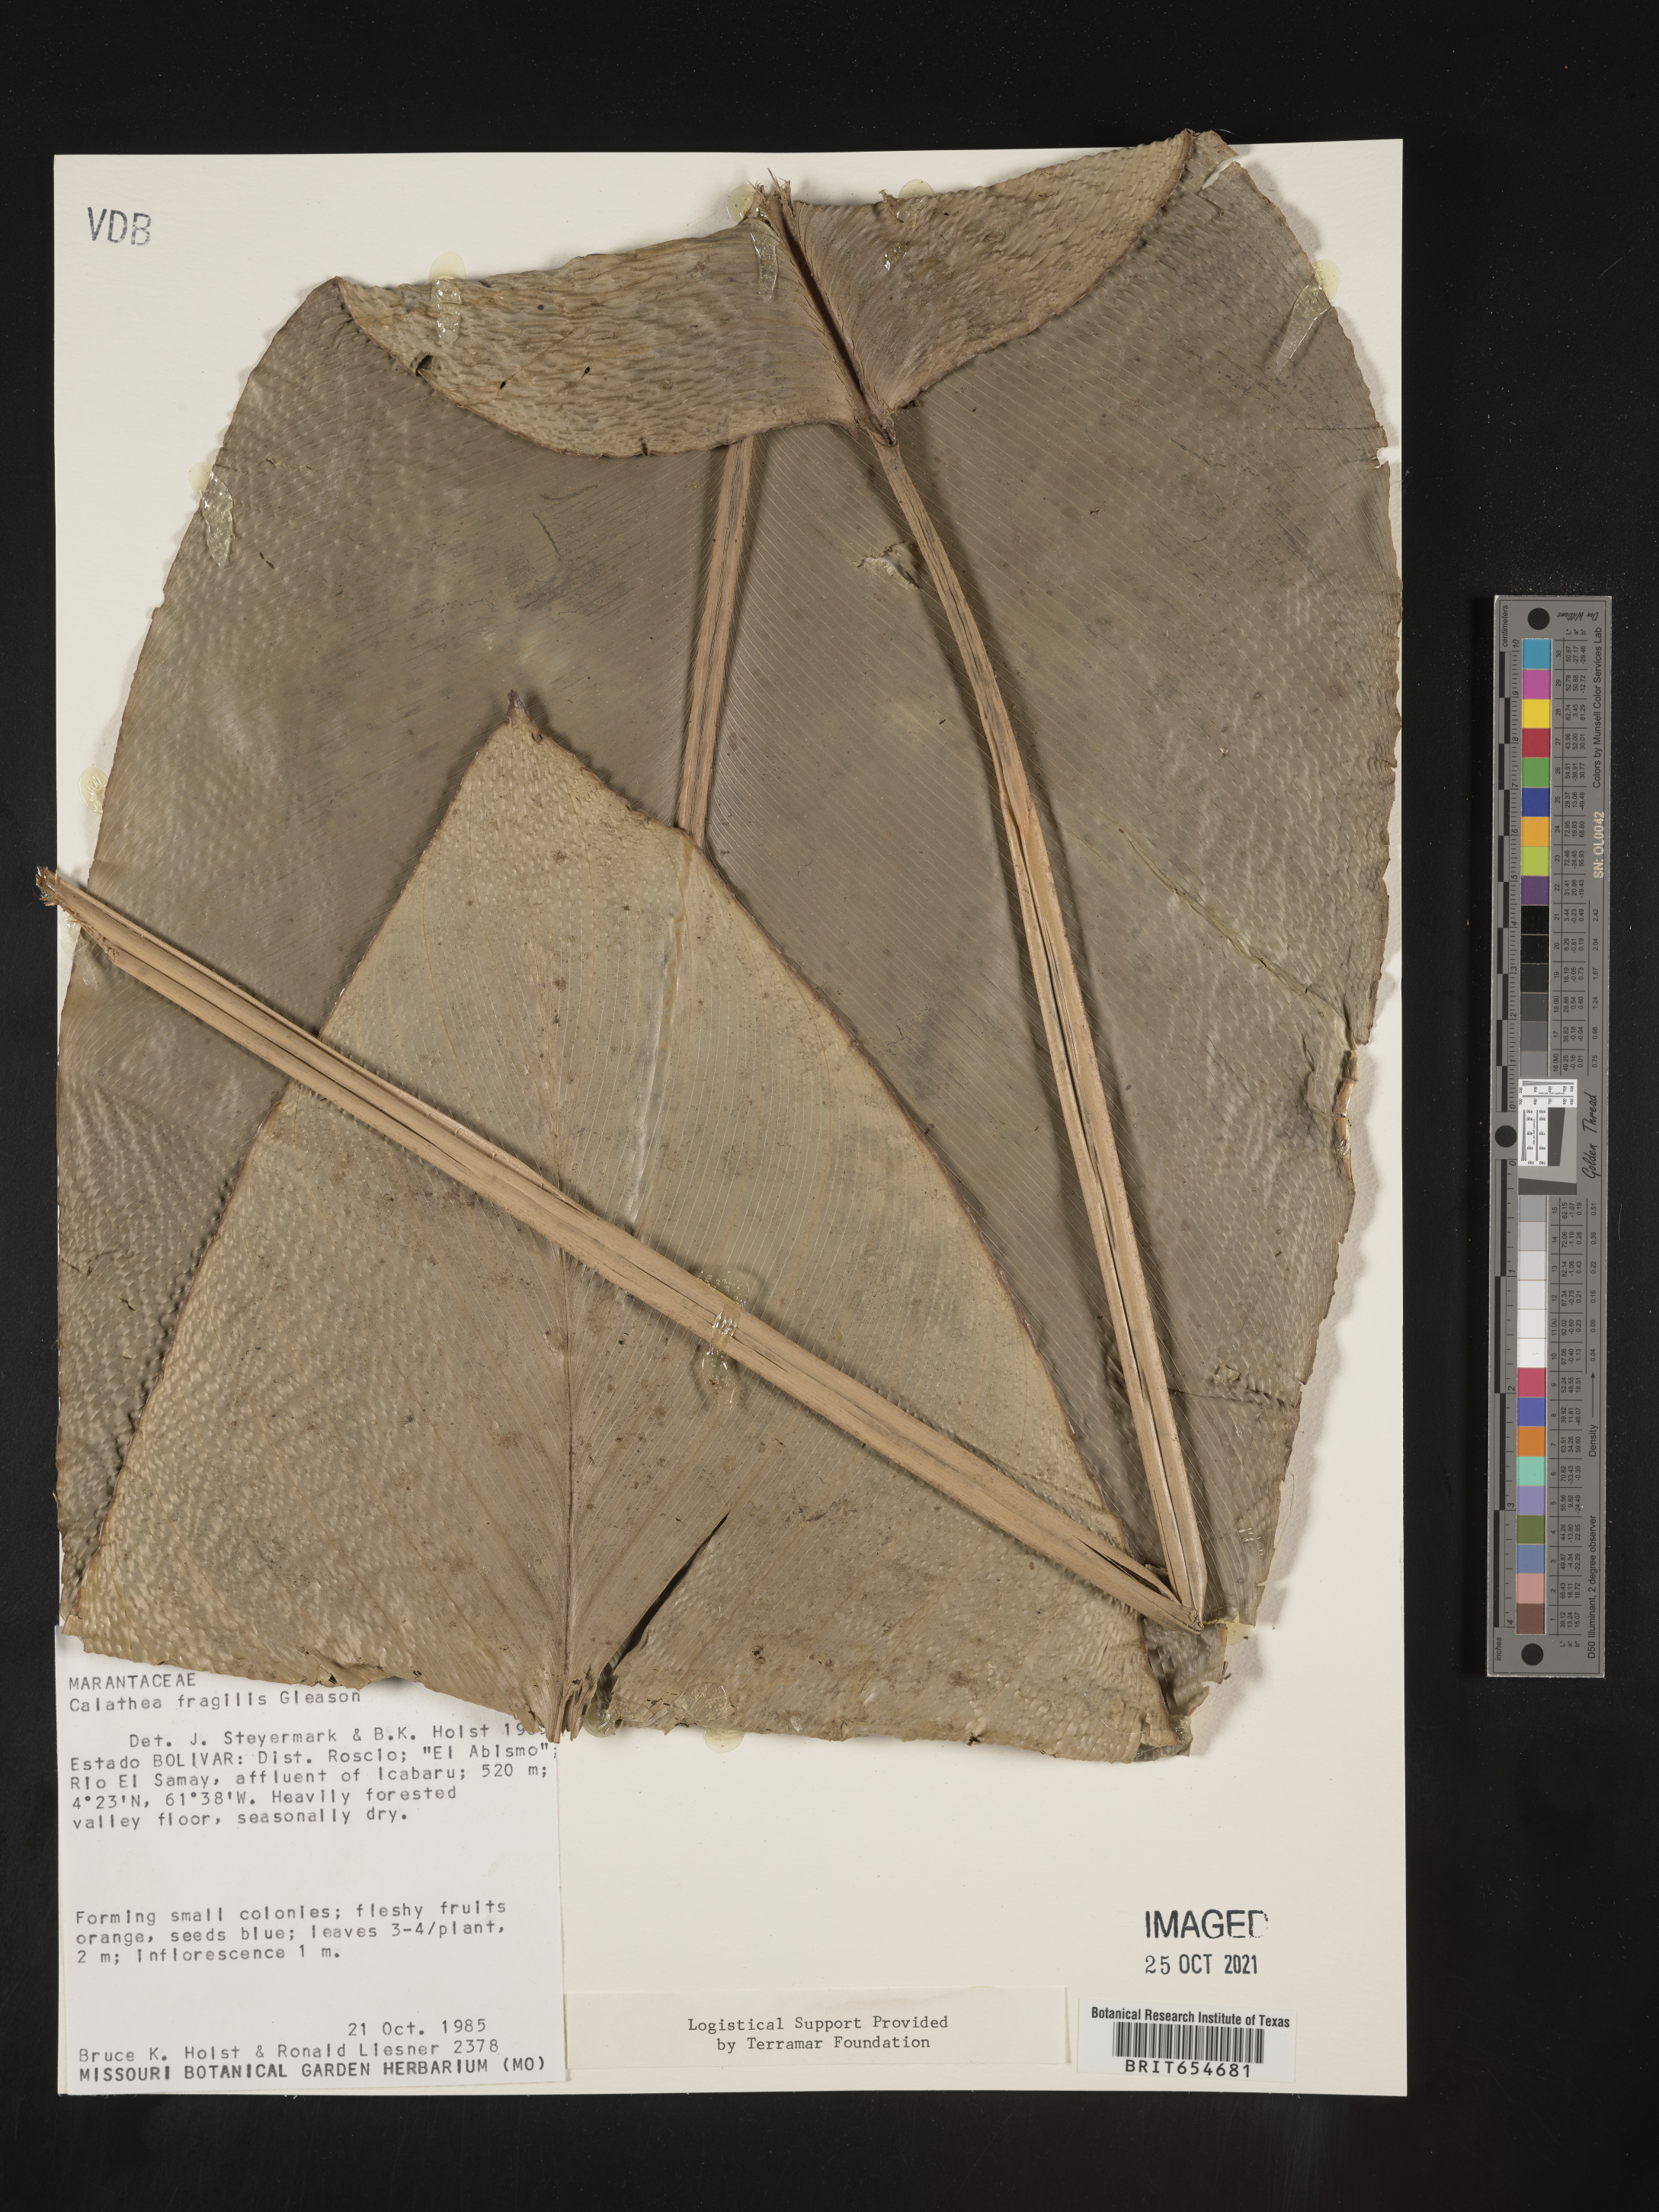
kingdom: Plantae
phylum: Tracheophyta
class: Liliopsida
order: Zingiberales
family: Marantaceae
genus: Calathea
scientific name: Calathea
